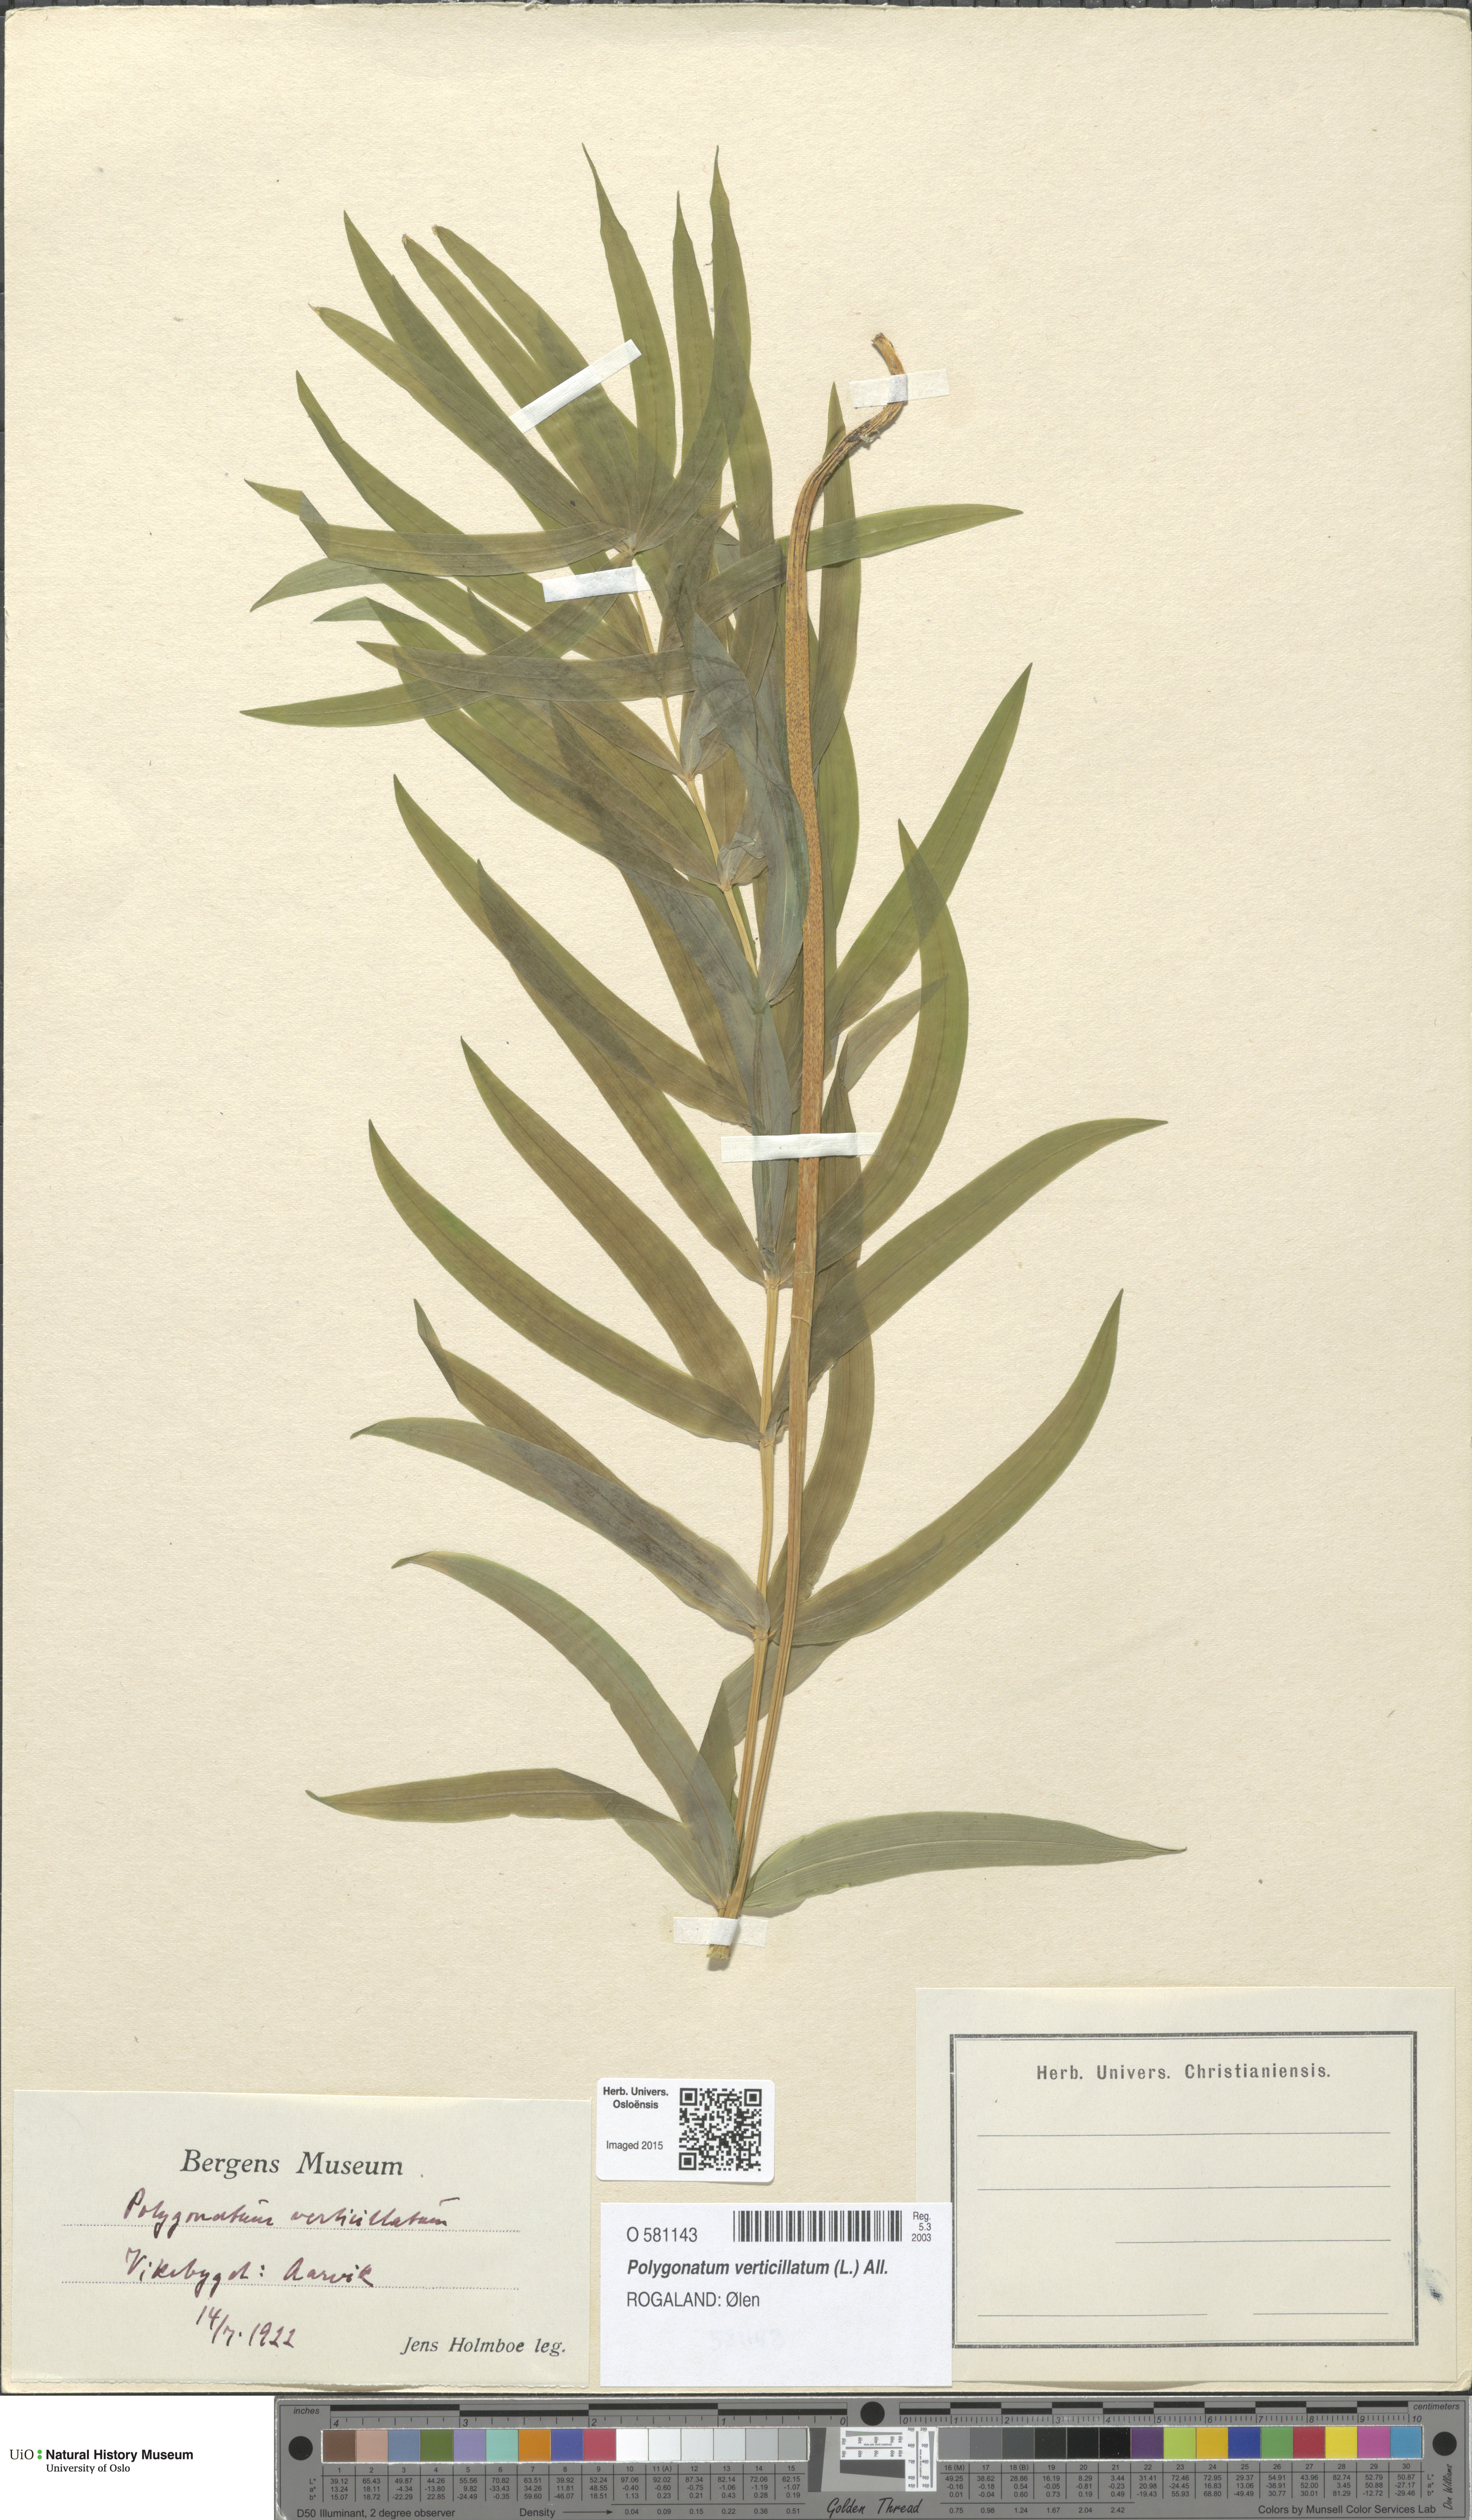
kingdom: Plantae
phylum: Tracheophyta
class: Liliopsida
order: Asparagales
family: Asparagaceae
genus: Polygonatum
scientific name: Polygonatum verticillatum
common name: Whorled solomon's-seal
